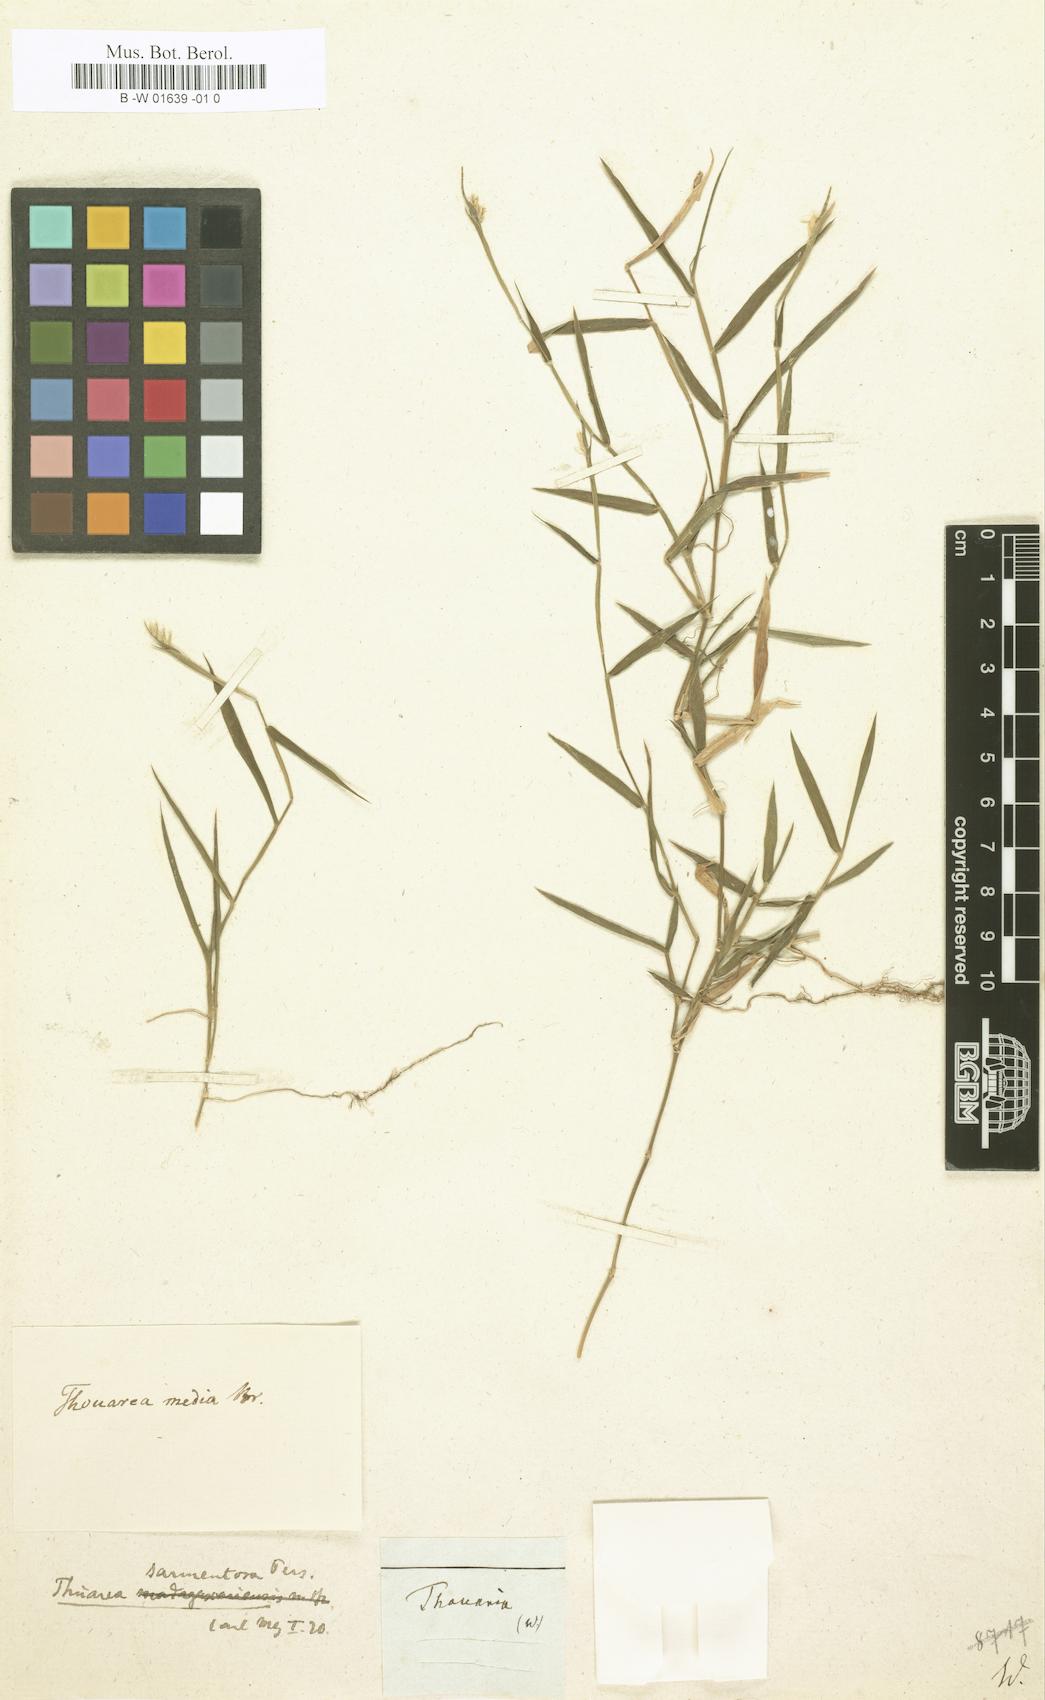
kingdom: Plantae
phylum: Tracheophyta
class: Magnoliopsida
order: Asterales
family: Asteraceae
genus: Thouarsia
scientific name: Thouarsia
